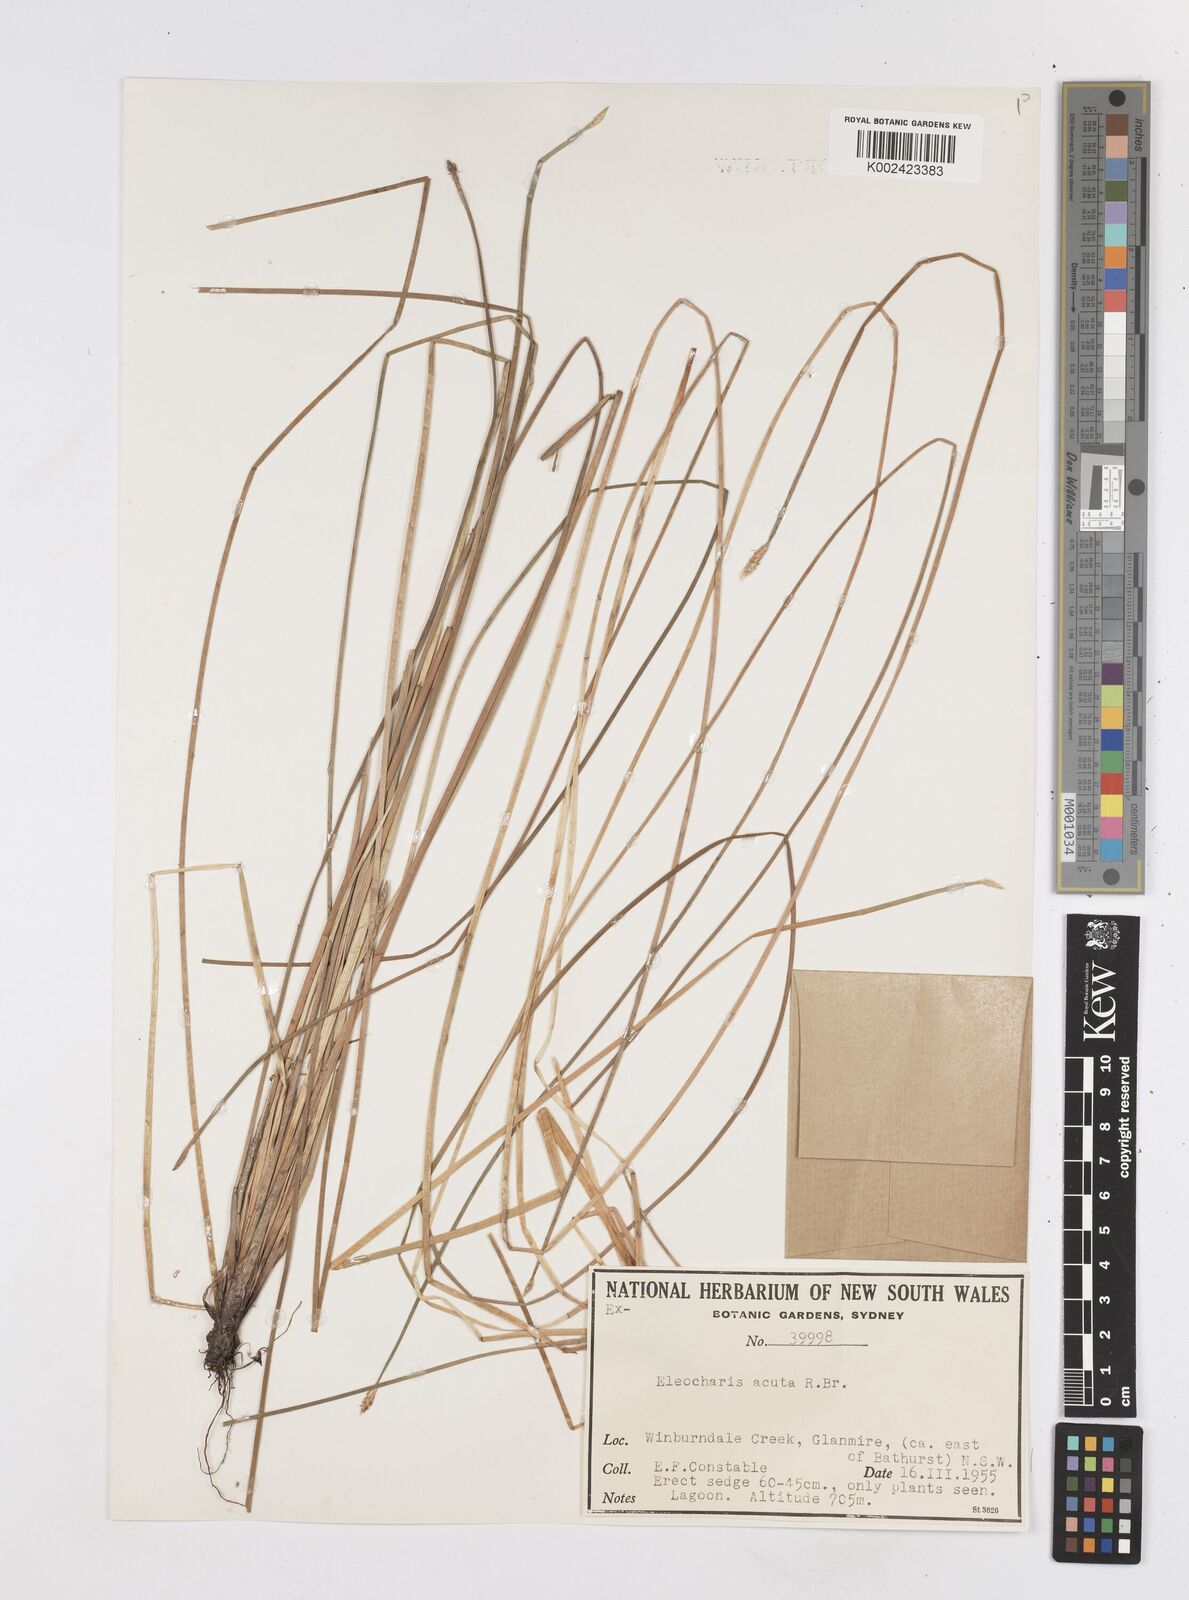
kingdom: Plantae
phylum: Tracheophyta
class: Liliopsida
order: Poales
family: Cyperaceae
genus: Eleocharis
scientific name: Eleocharis acuta
